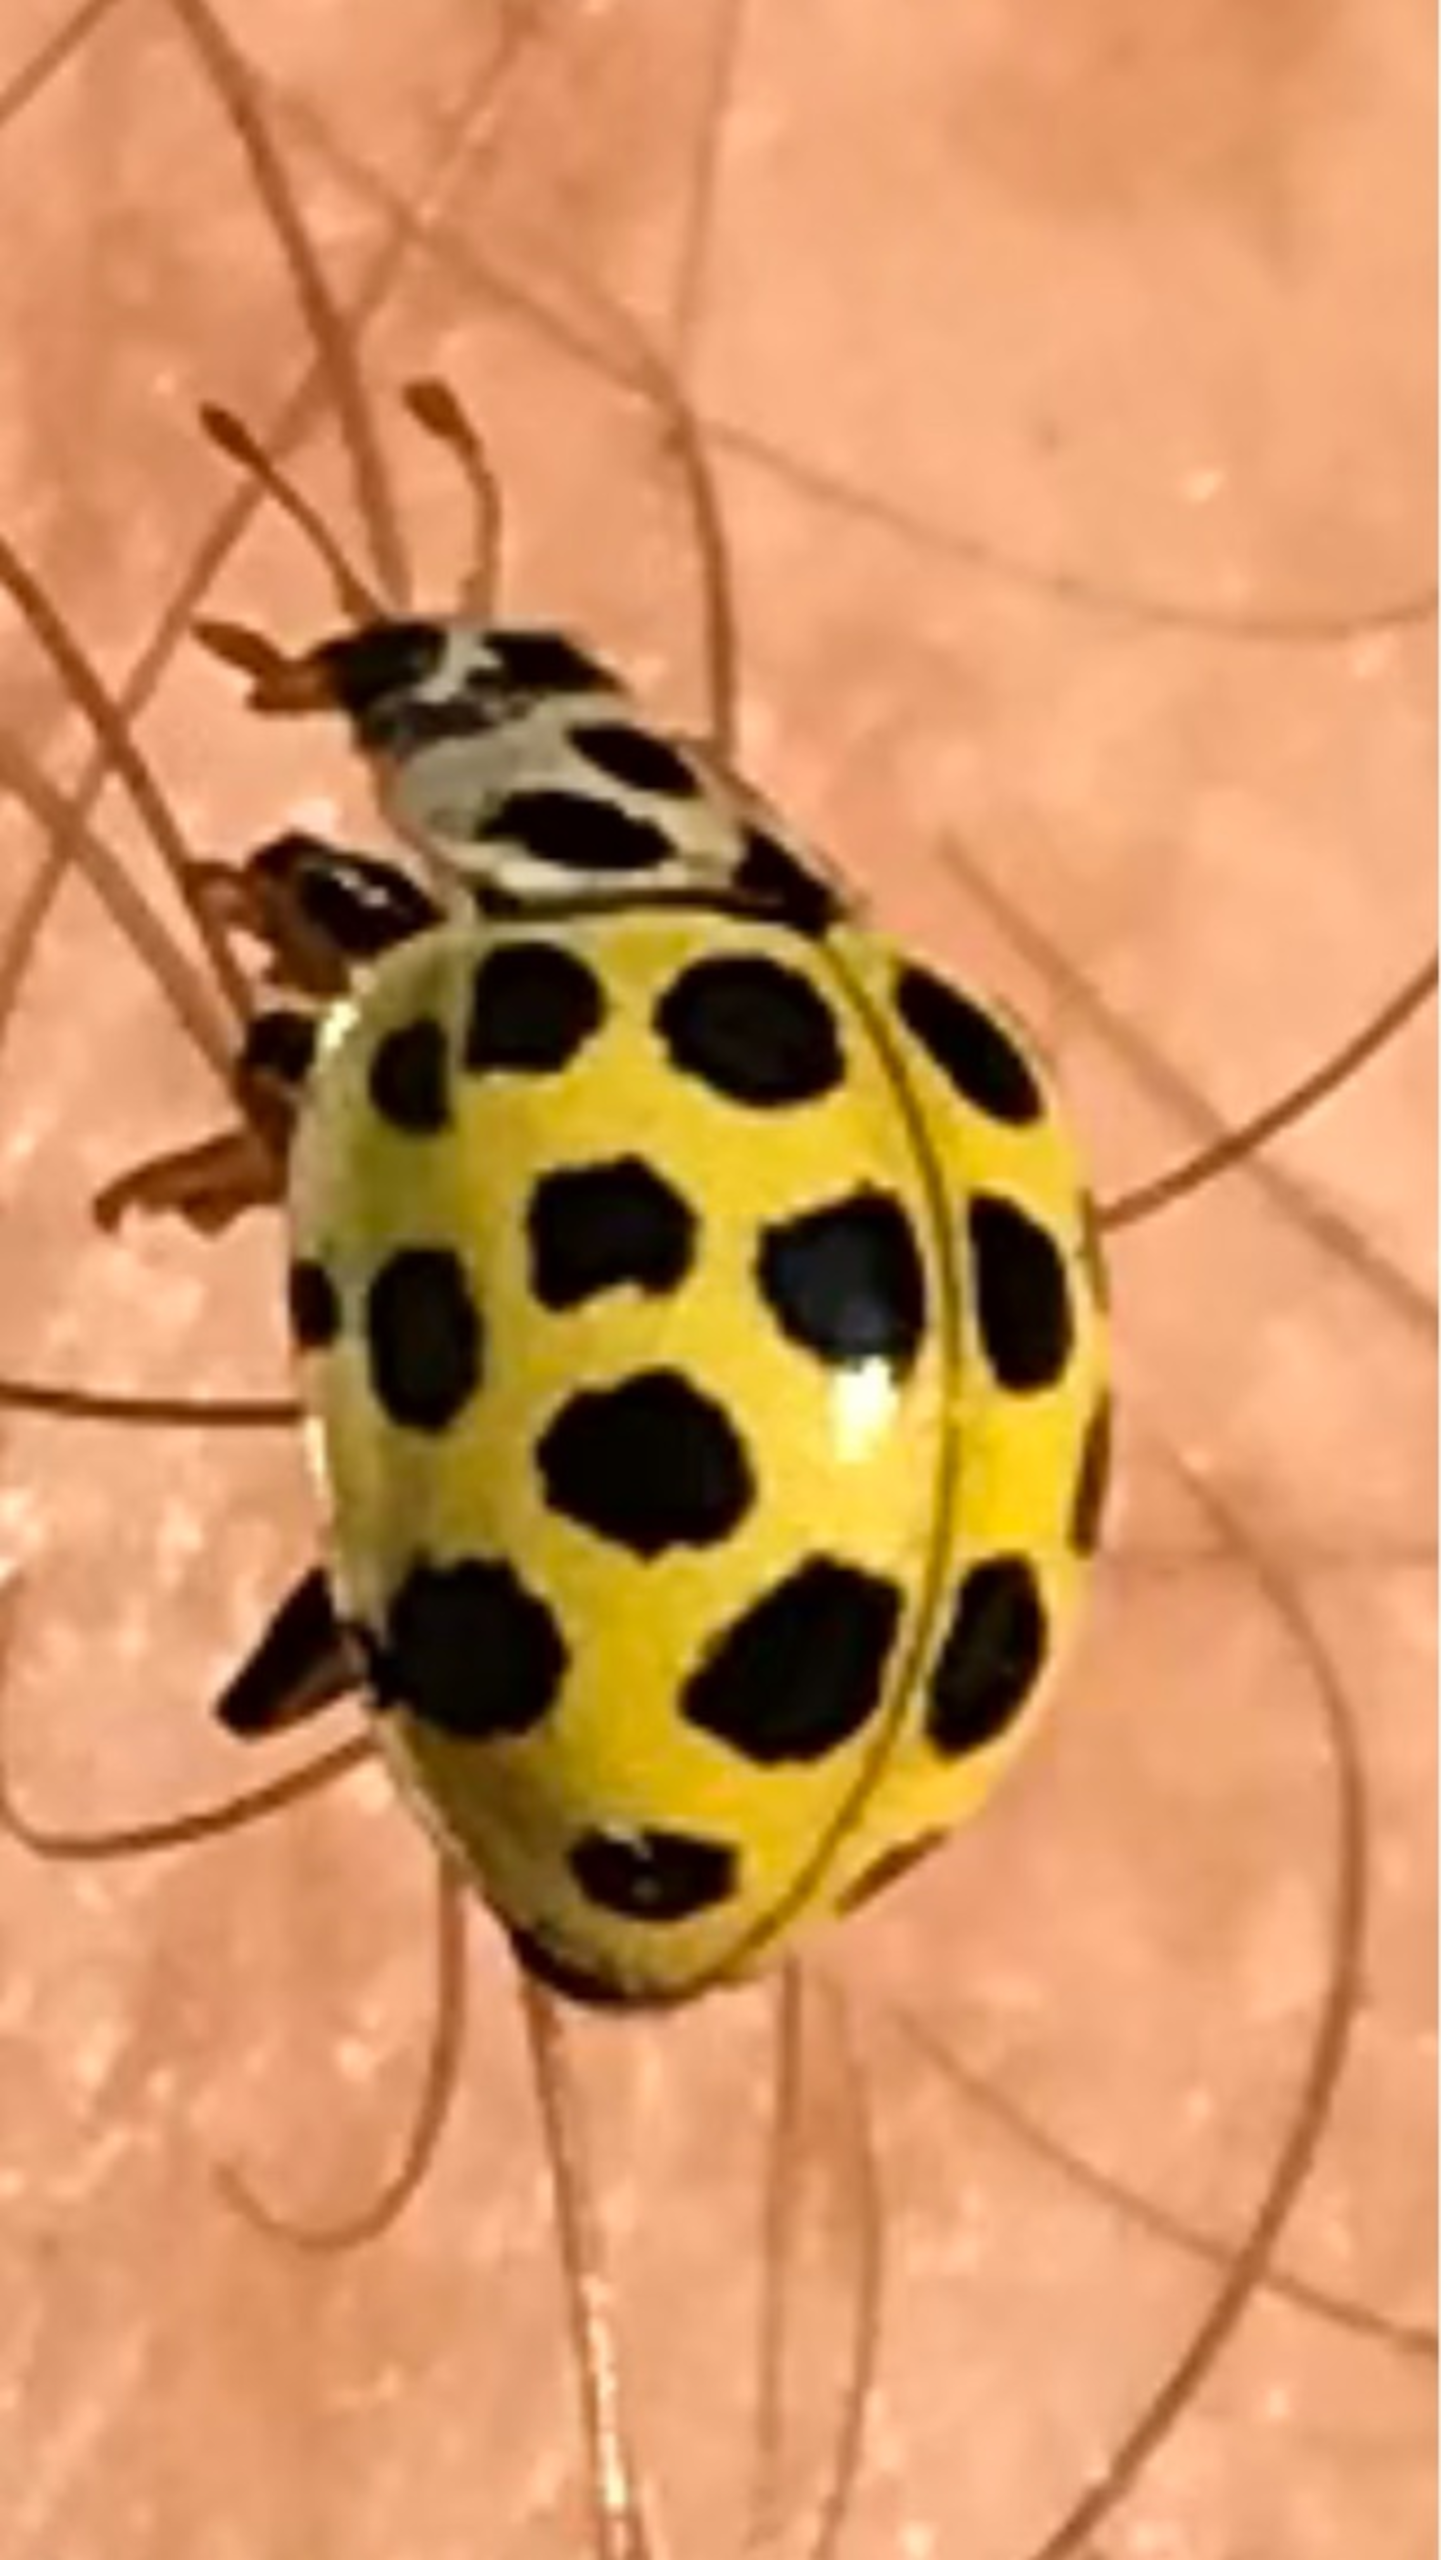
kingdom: Animalia
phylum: Arthropoda
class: Insecta
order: Coleoptera
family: Coccinellidae
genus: Psyllobora
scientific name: Psyllobora vigintiduopunctata
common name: Toogtyveplettet mariehøne
